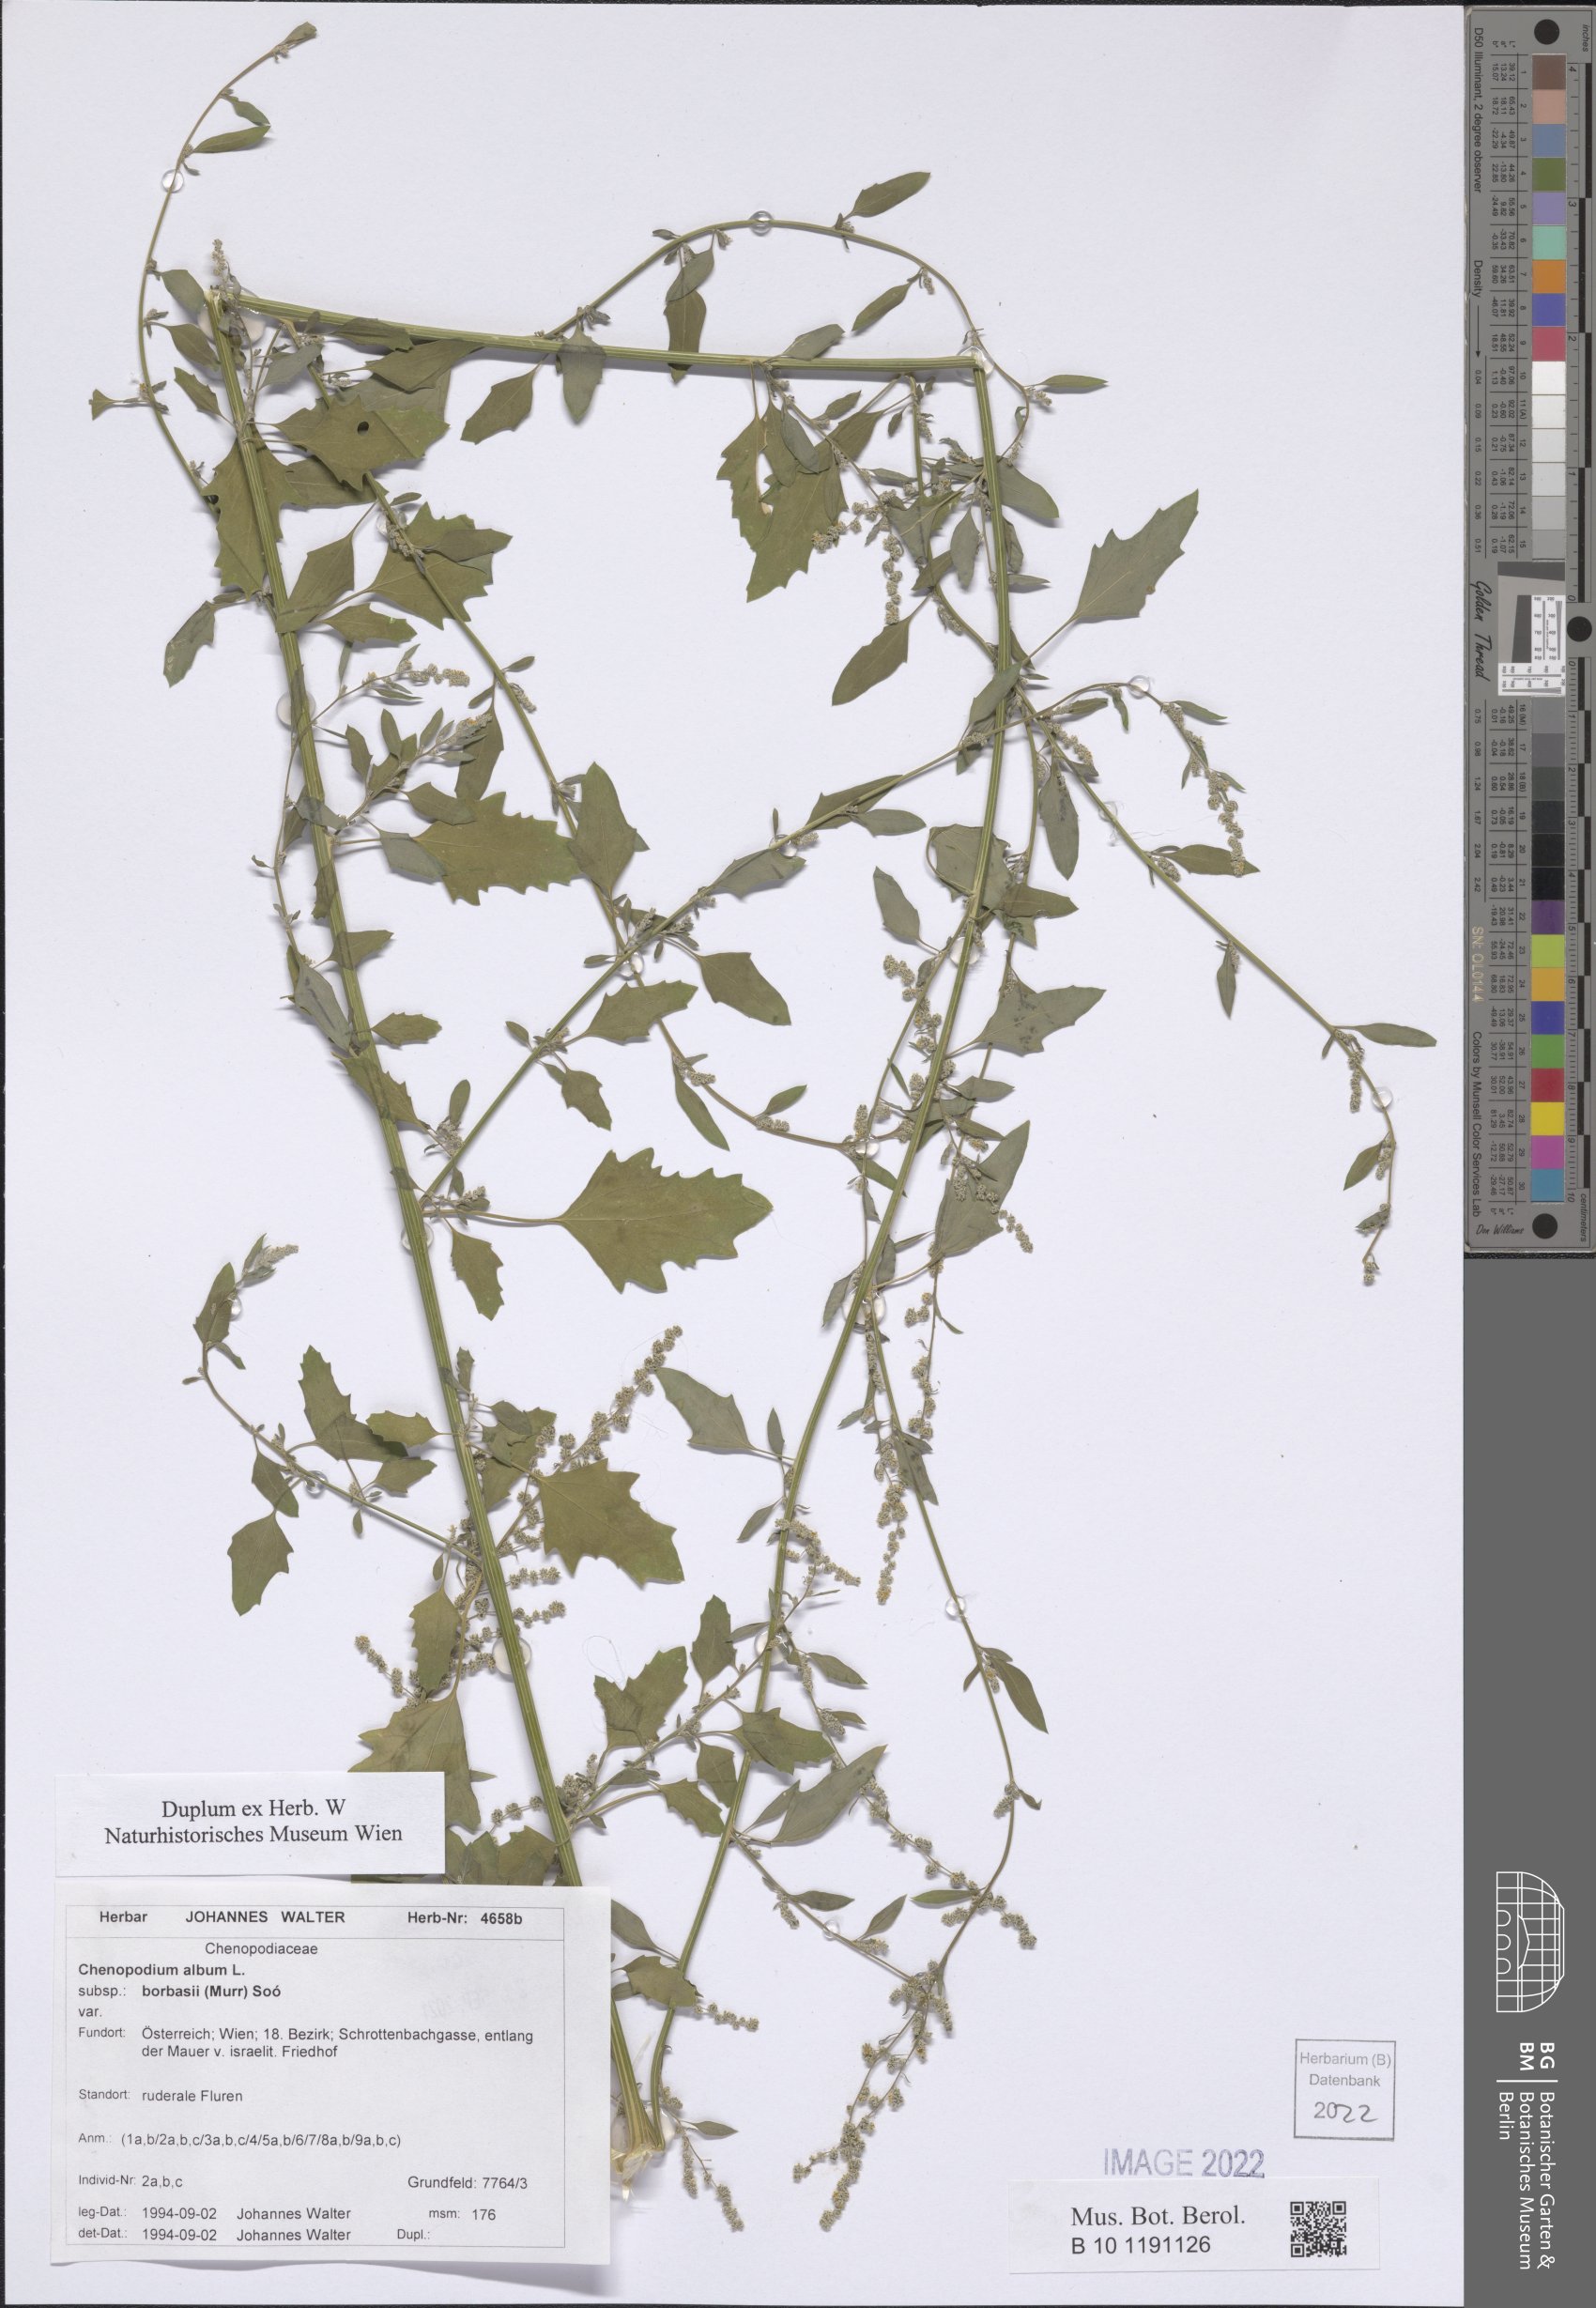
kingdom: Plantae
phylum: Tracheophyta
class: Magnoliopsida
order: Caryophyllales
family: Amaranthaceae
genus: Chenopodium
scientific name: Chenopodium borbasii
